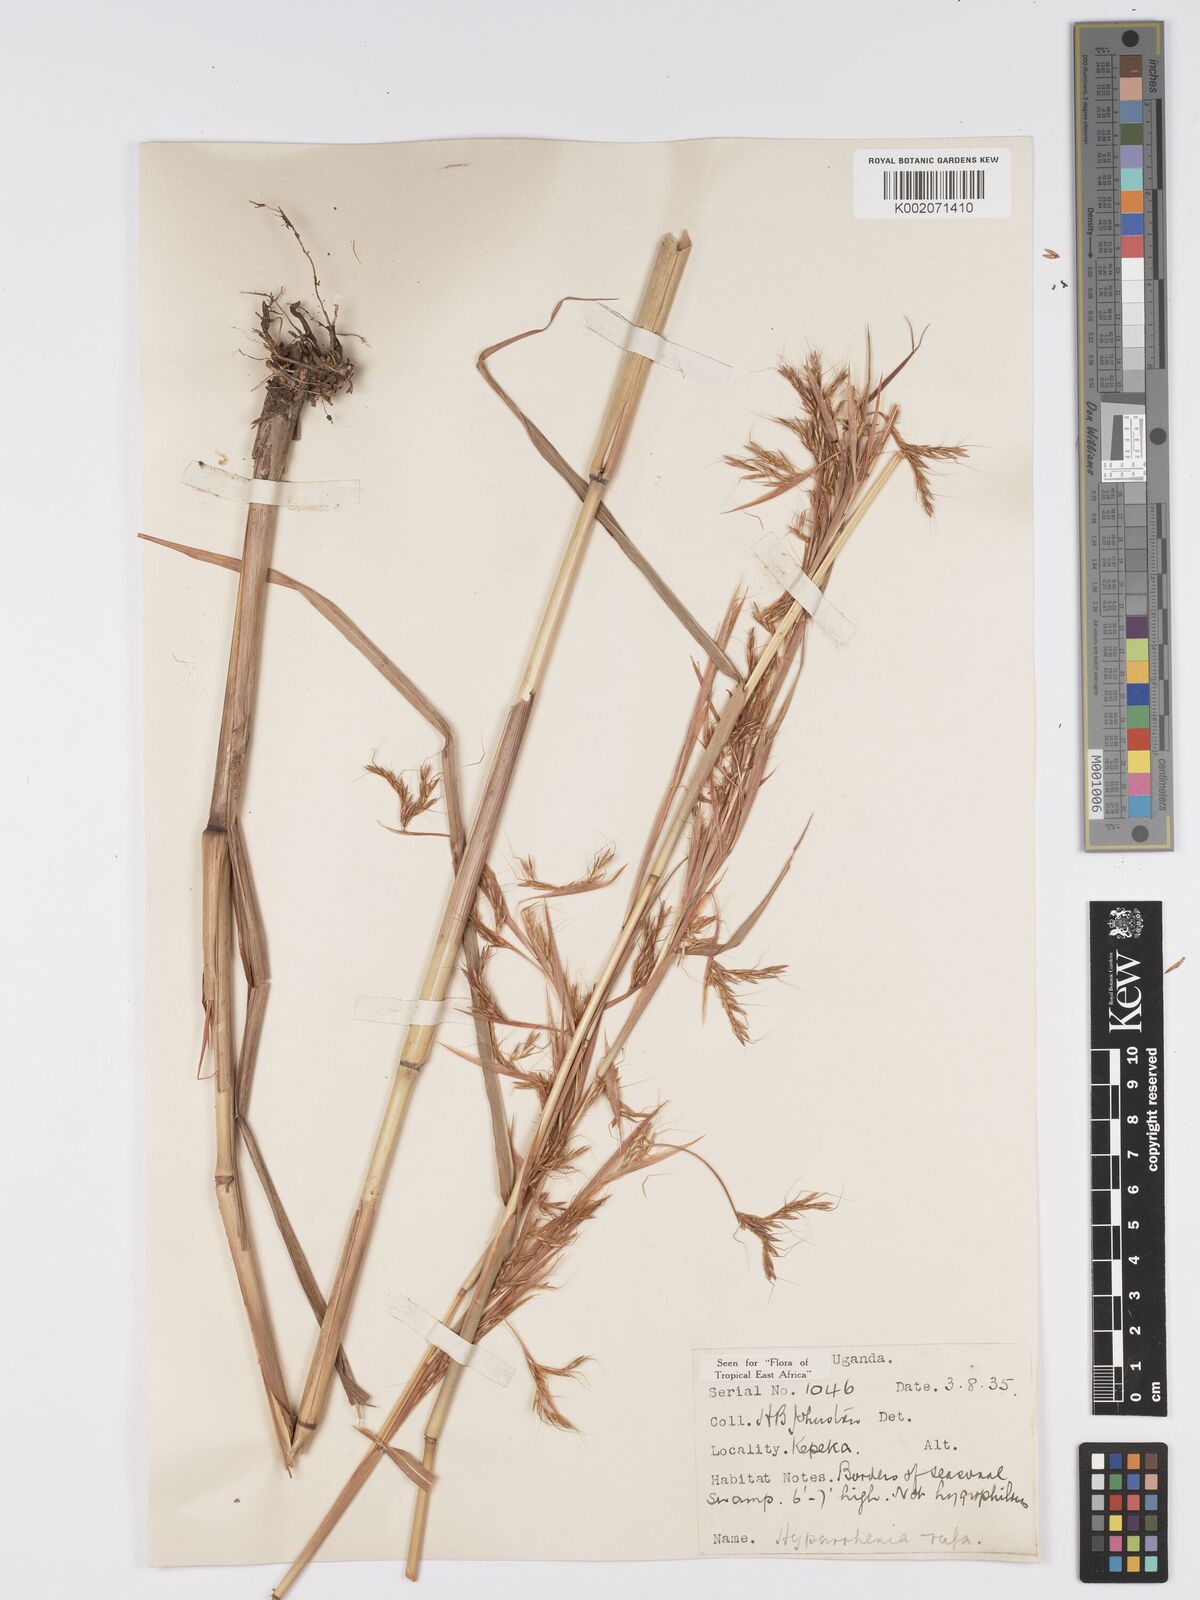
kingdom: Plantae
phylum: Tracheophyta
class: Liliopsida
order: Poales
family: Poaceae
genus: Hyparrhenia
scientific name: Hyparrhenia rufa
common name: Jaraguagrass
